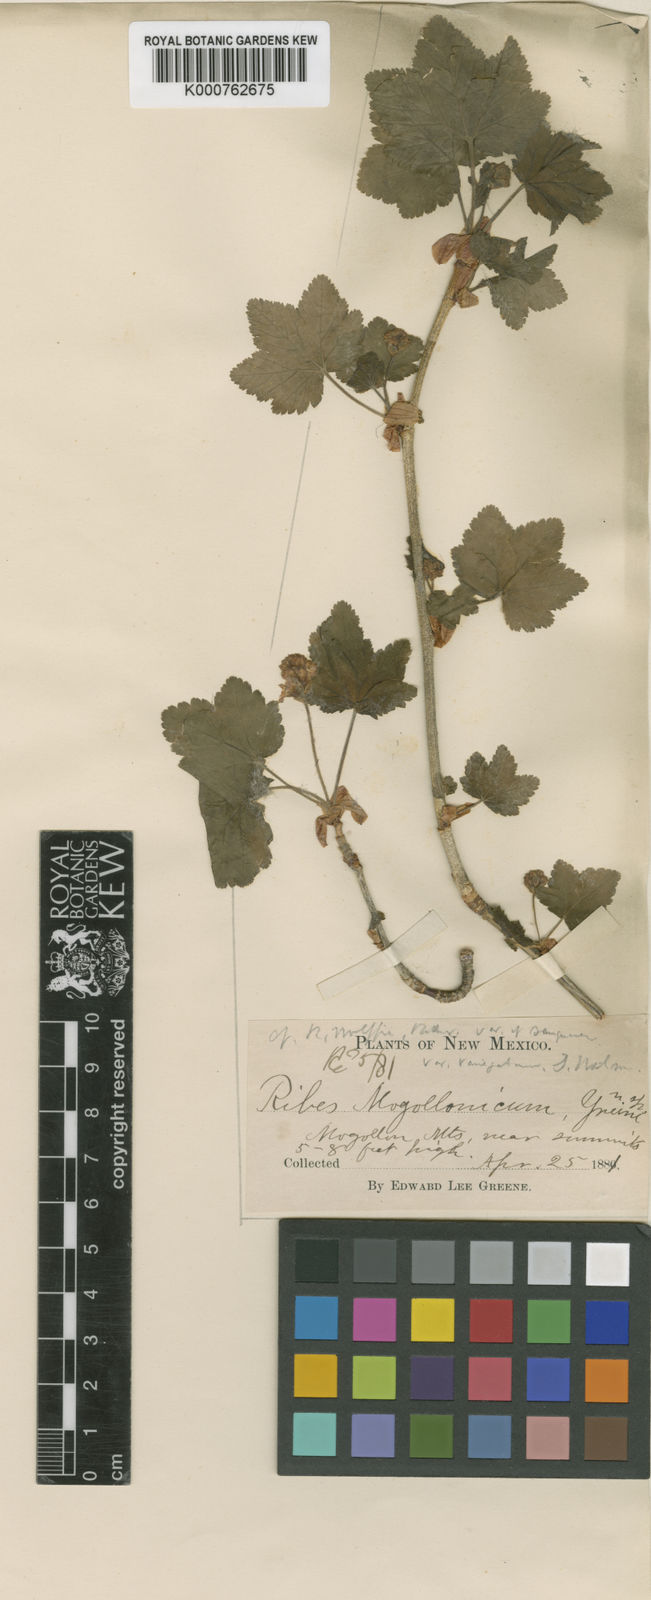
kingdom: Plantae
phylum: Tracheophyta
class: Magnoliopsida
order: Saxifragales
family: Grossulariaceae
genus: Ribes
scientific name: Ribes wolfii
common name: Rothrock currant
